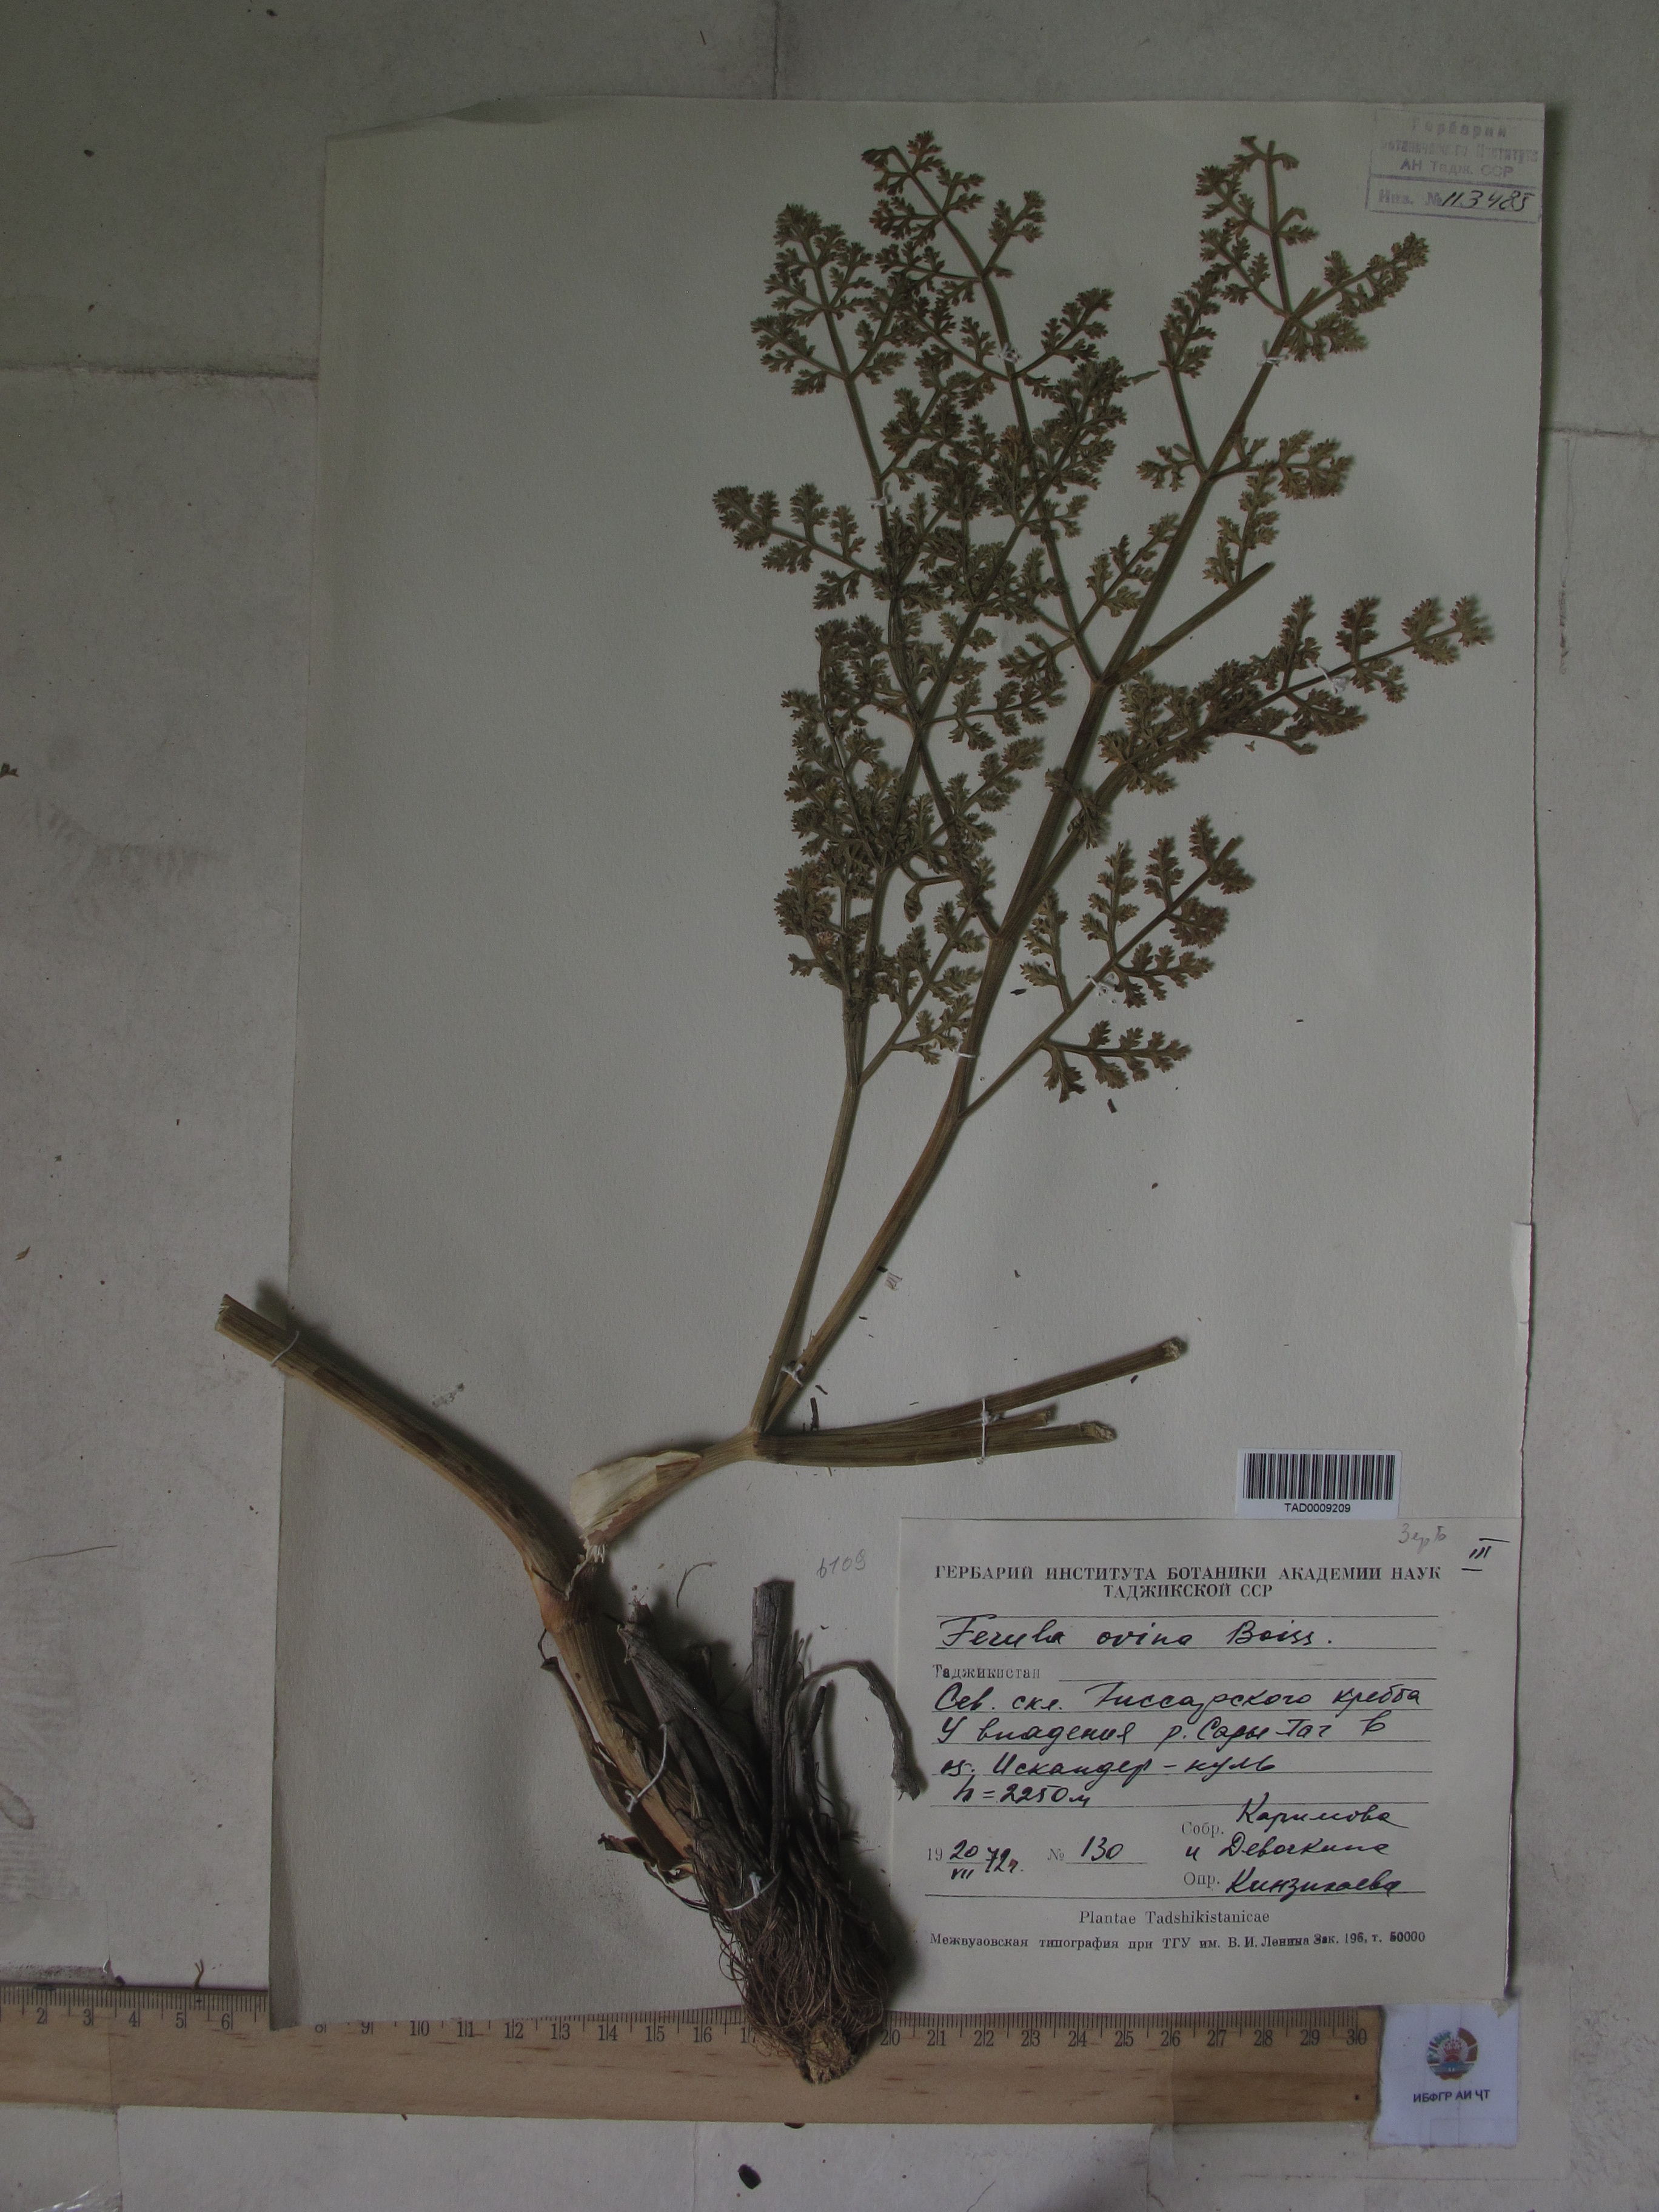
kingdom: Plantae
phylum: Tracheophyta
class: Magnoliopsida
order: Apiales
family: Apiaceae
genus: Ferula
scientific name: Ferula ovina
